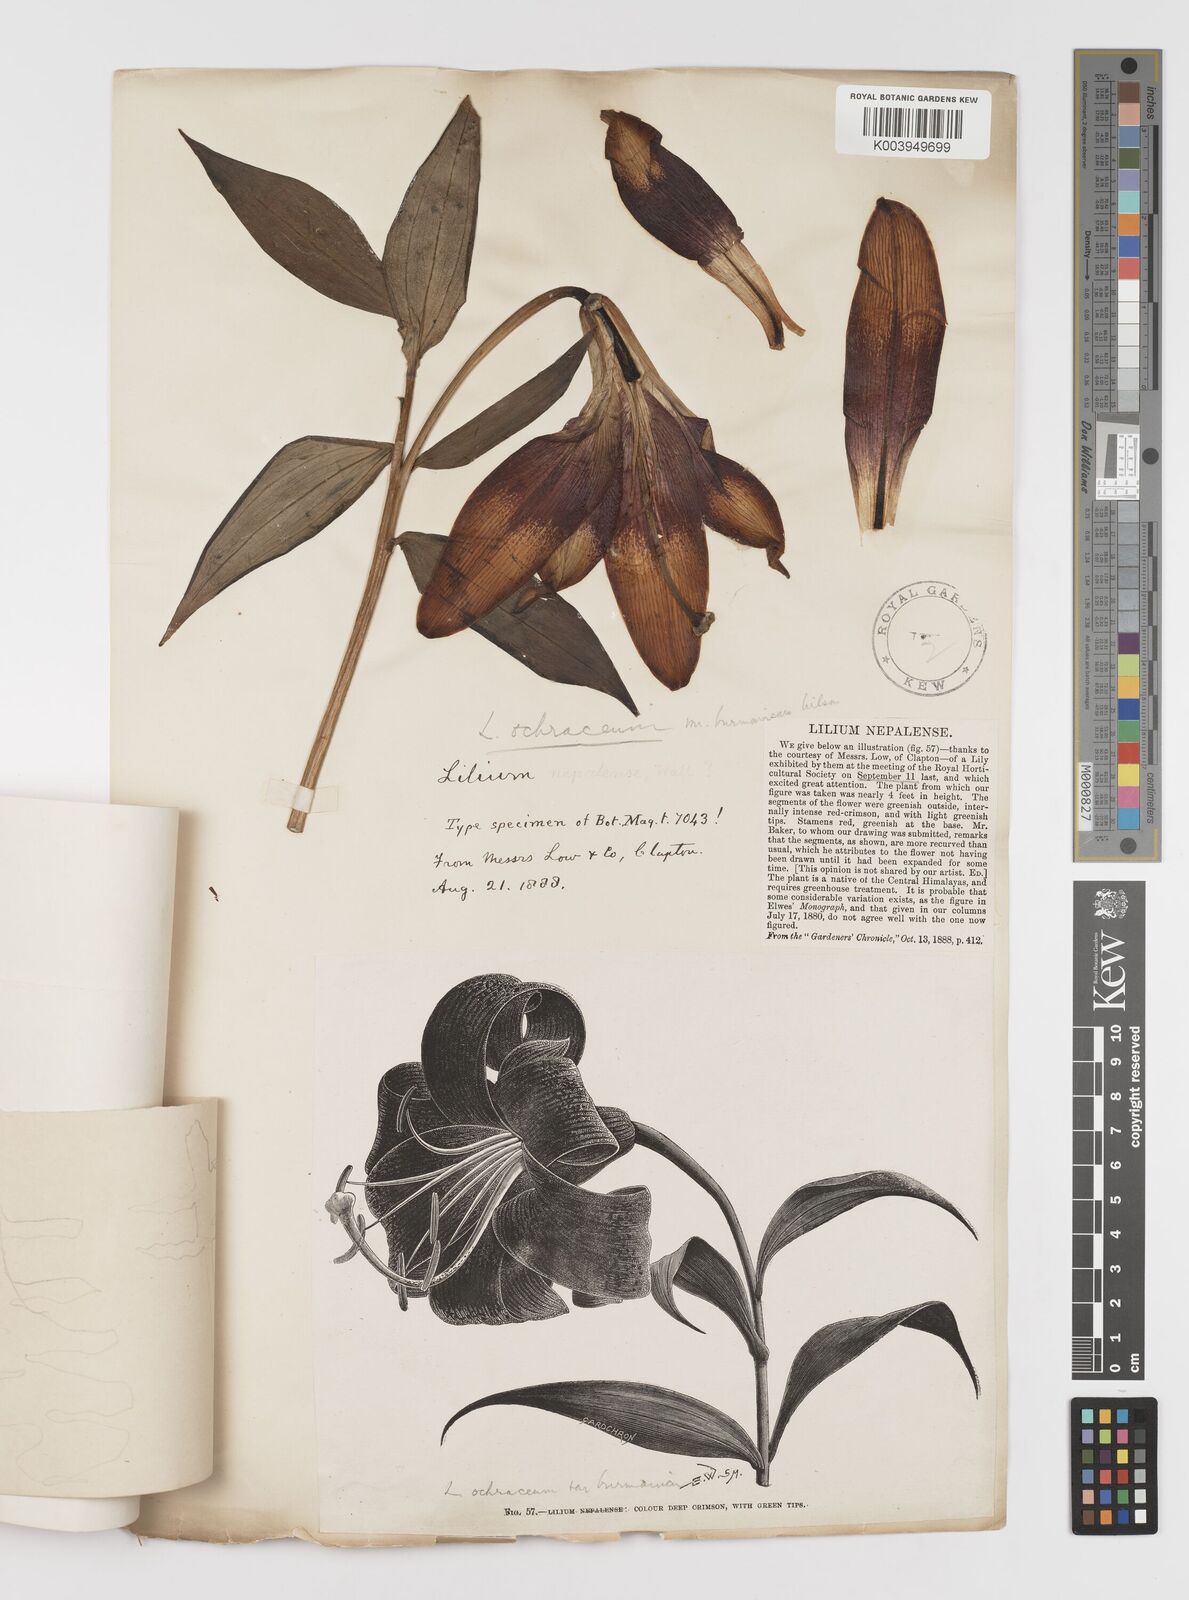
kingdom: Plantae
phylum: Tracheophyta
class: Liliopsida
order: Liliales
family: Liliaceae
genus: Lilium
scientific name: Lilium primulinum
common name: Ochre lily
